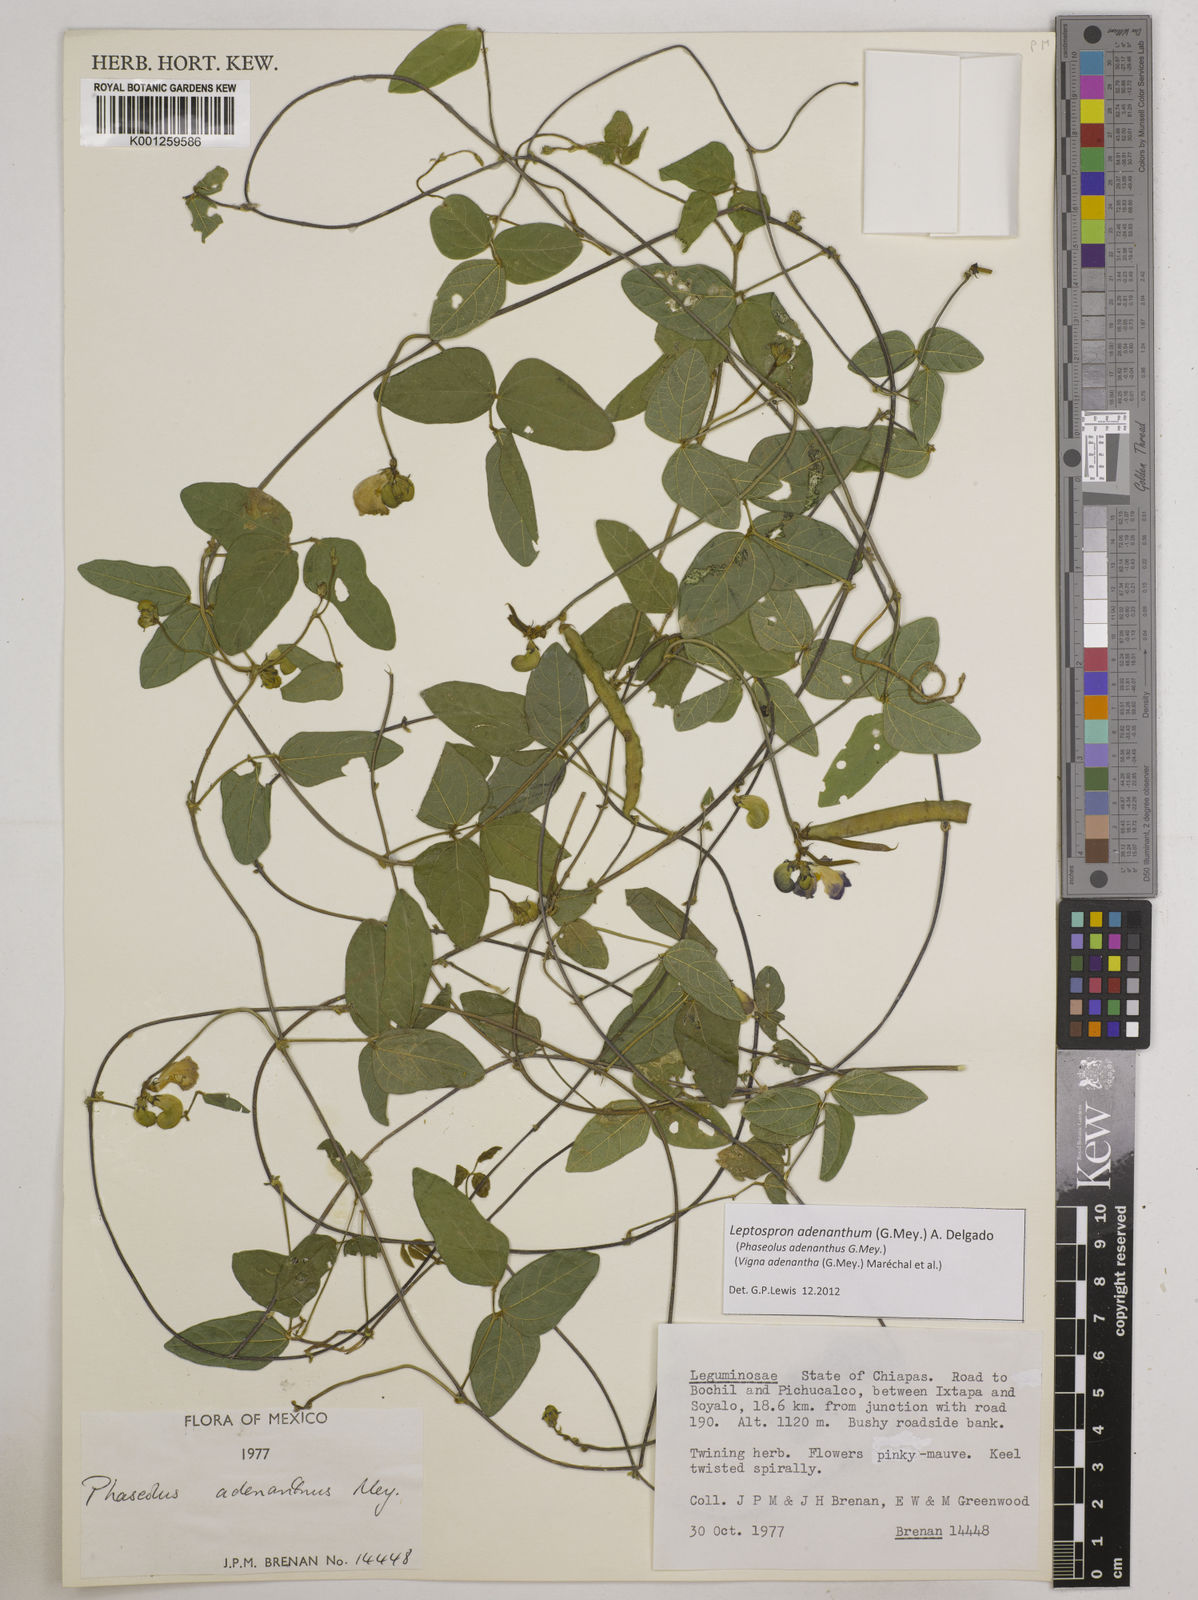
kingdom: Plantae
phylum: Tracheophyta
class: Magnoliopsida
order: Fabales
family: Fabaceae
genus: Leptospron
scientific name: Leptospron adenanthum
